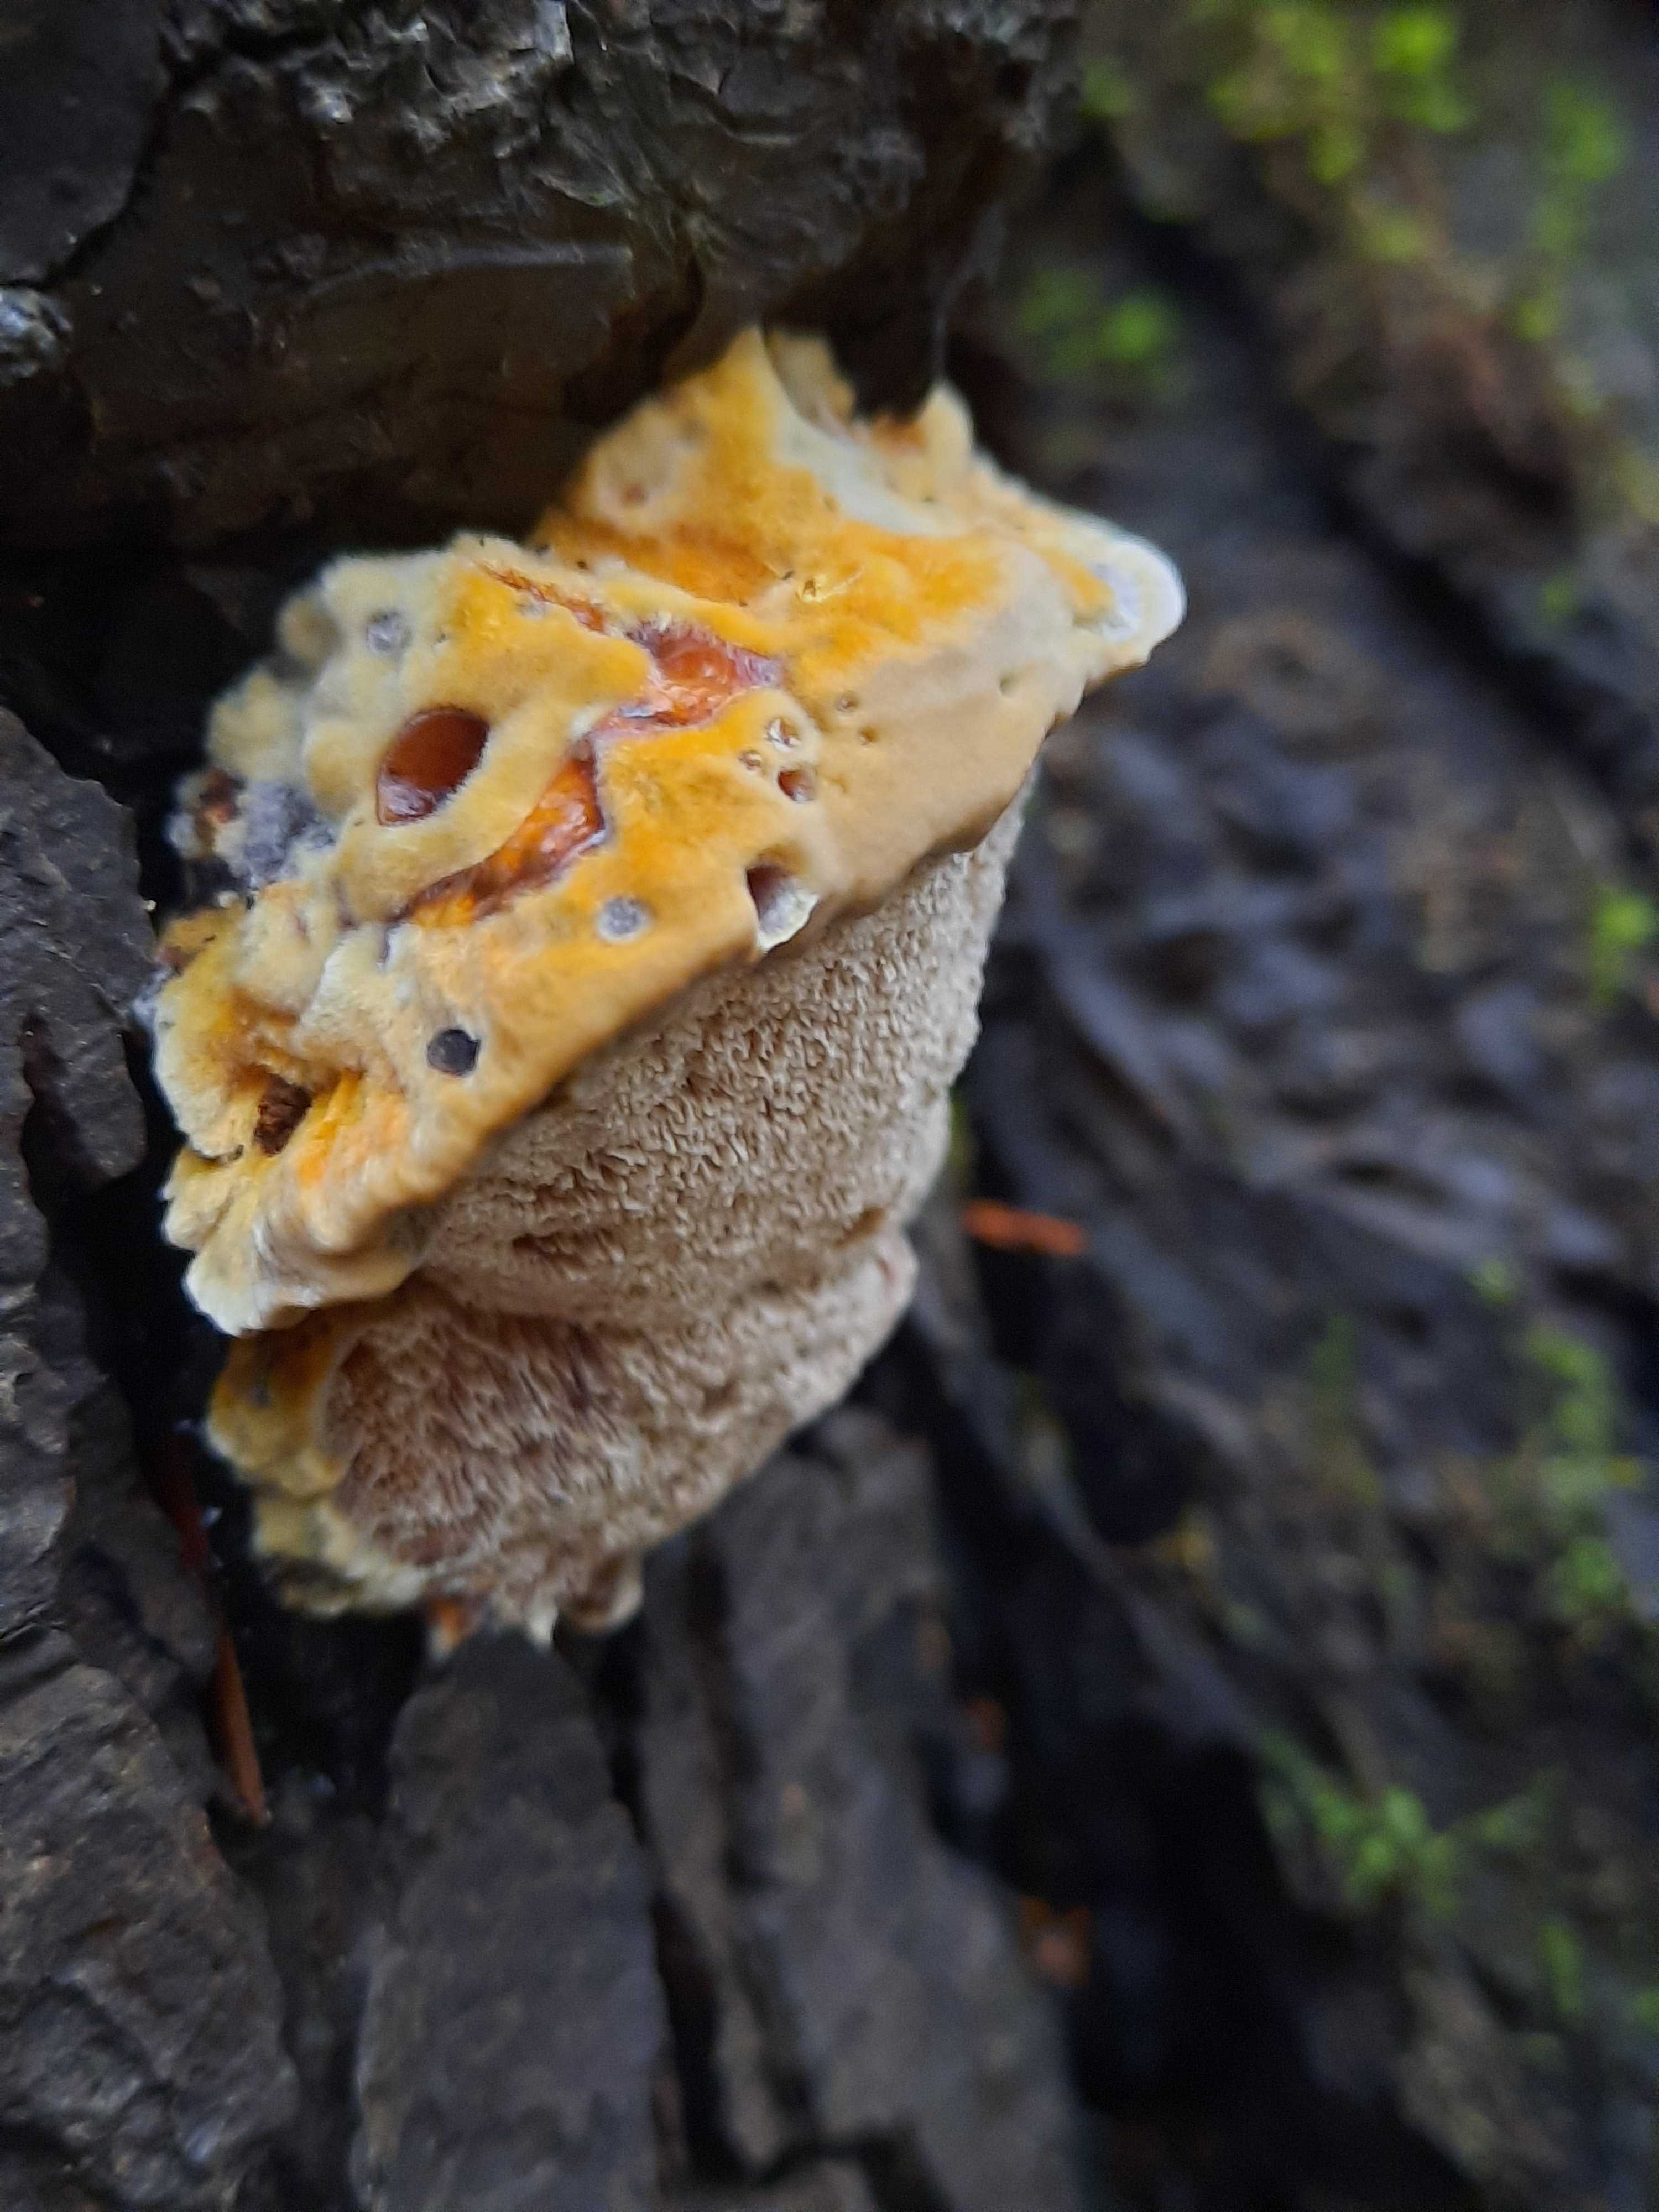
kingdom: Fungi
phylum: Basidiomycota
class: Agaricomycetes
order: Hymenochaetales
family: Hymenochaetaceae
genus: Xanthoporia
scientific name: Xanthoporia radiata
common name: elle-spejlporesvamp
